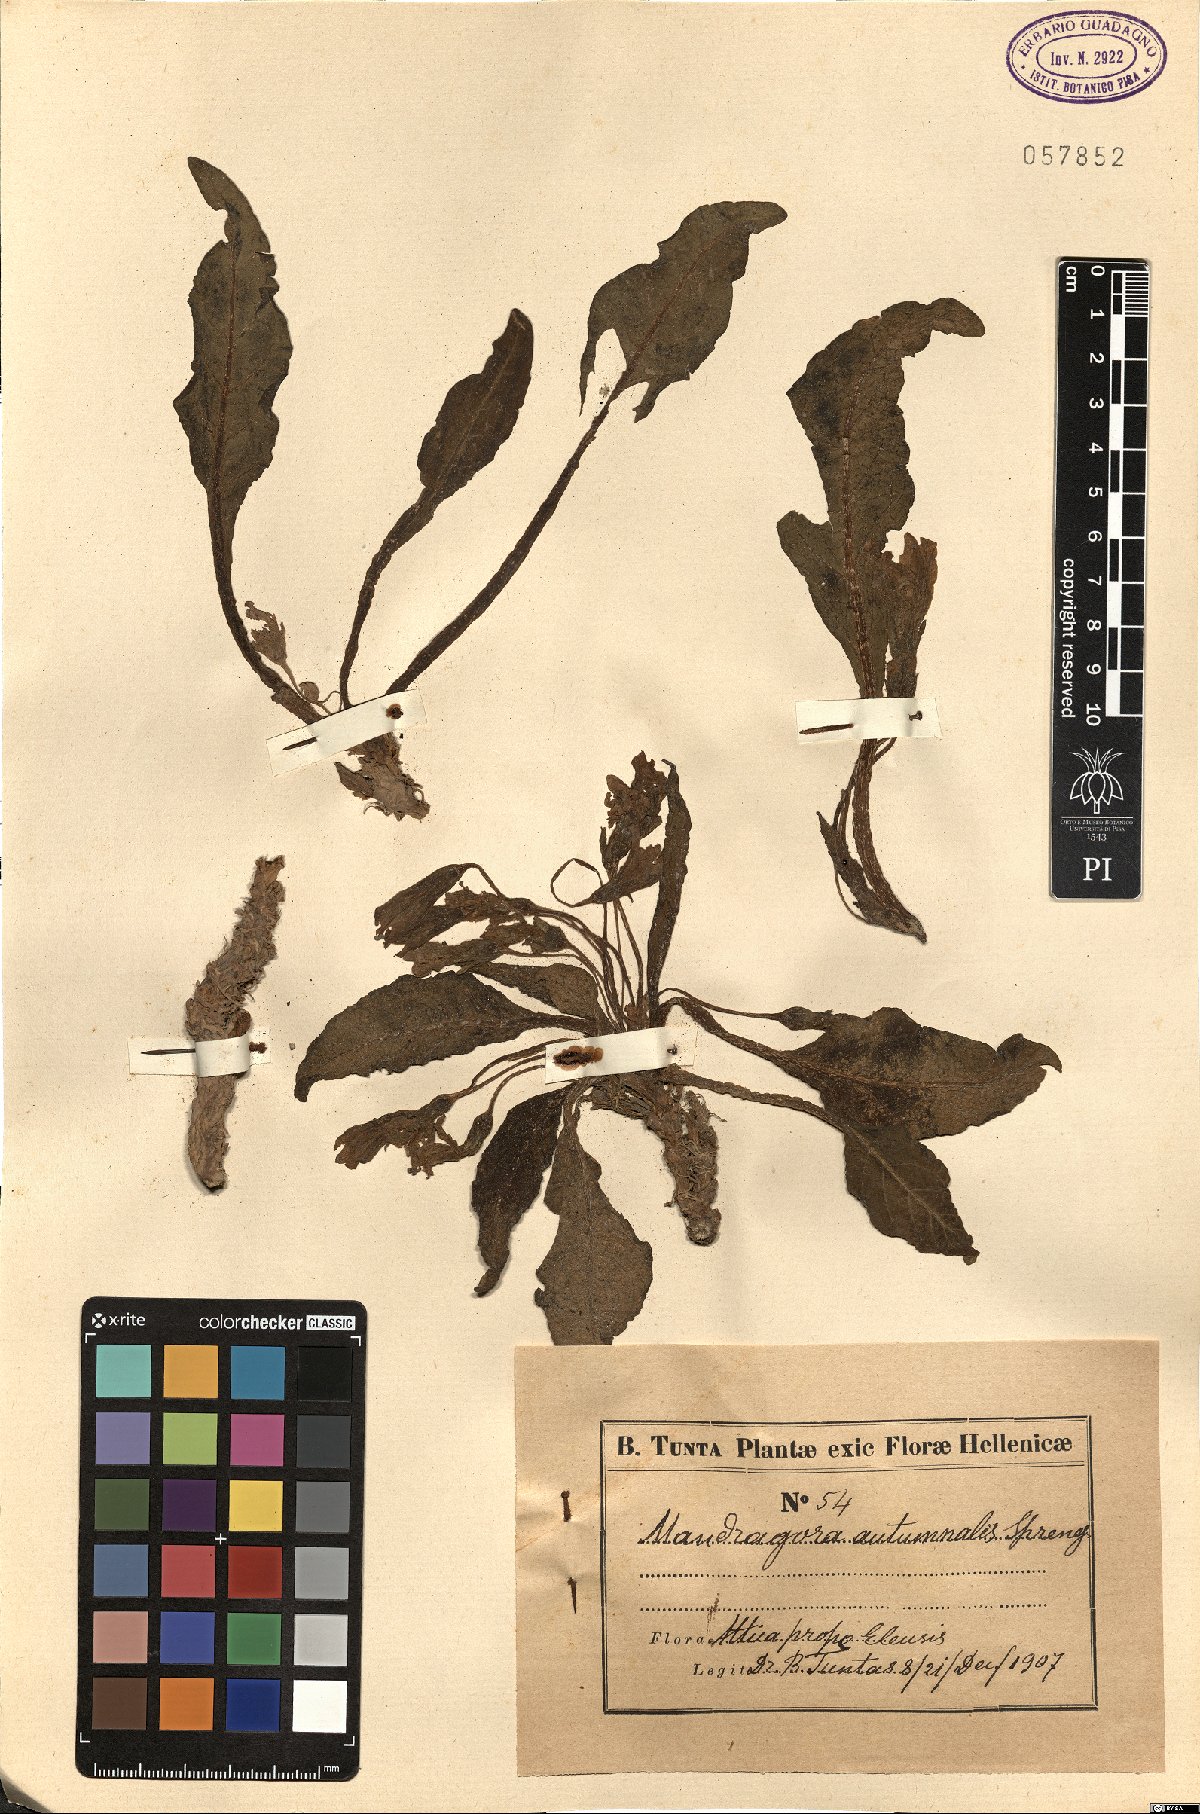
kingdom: Plantae
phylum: Tracheophyta
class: Magnoliopsida
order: Solanales
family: Solanaceae
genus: Mandragora
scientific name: Mandragora officinarum
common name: Mandrake
